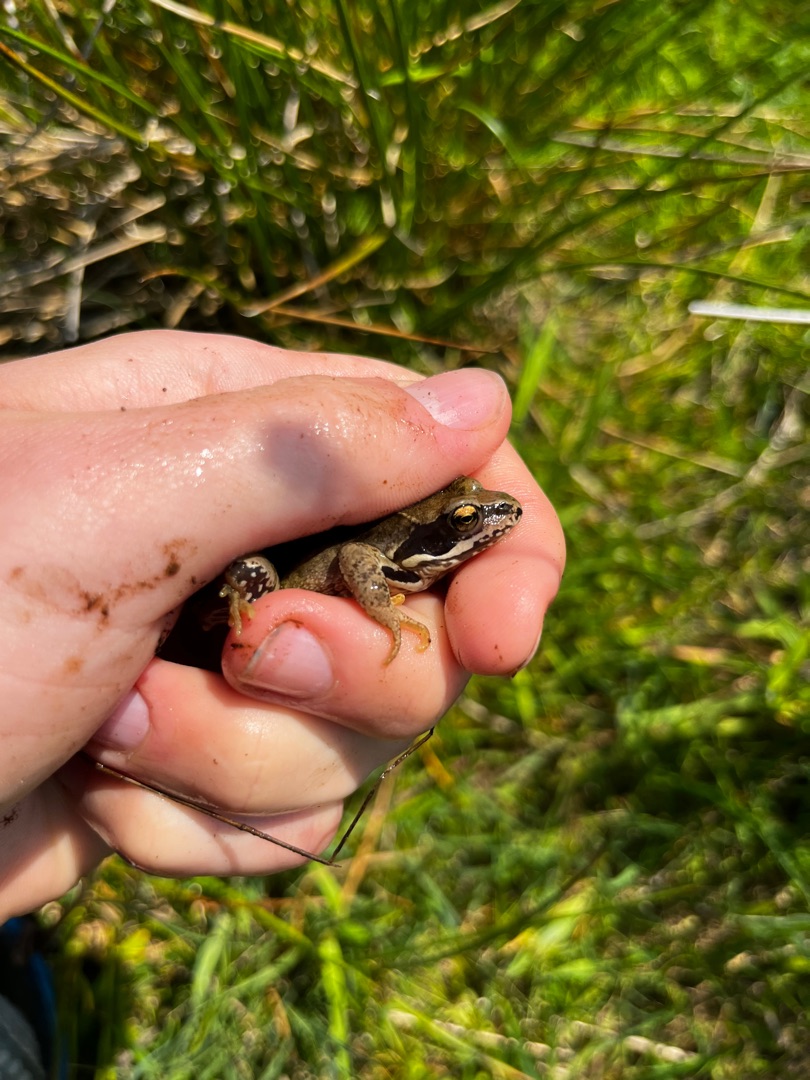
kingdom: Animalia
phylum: Chordata
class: Amphibia
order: Anura
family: Ranidae
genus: Rana
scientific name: Rana temporaria
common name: Butsnudet frø
